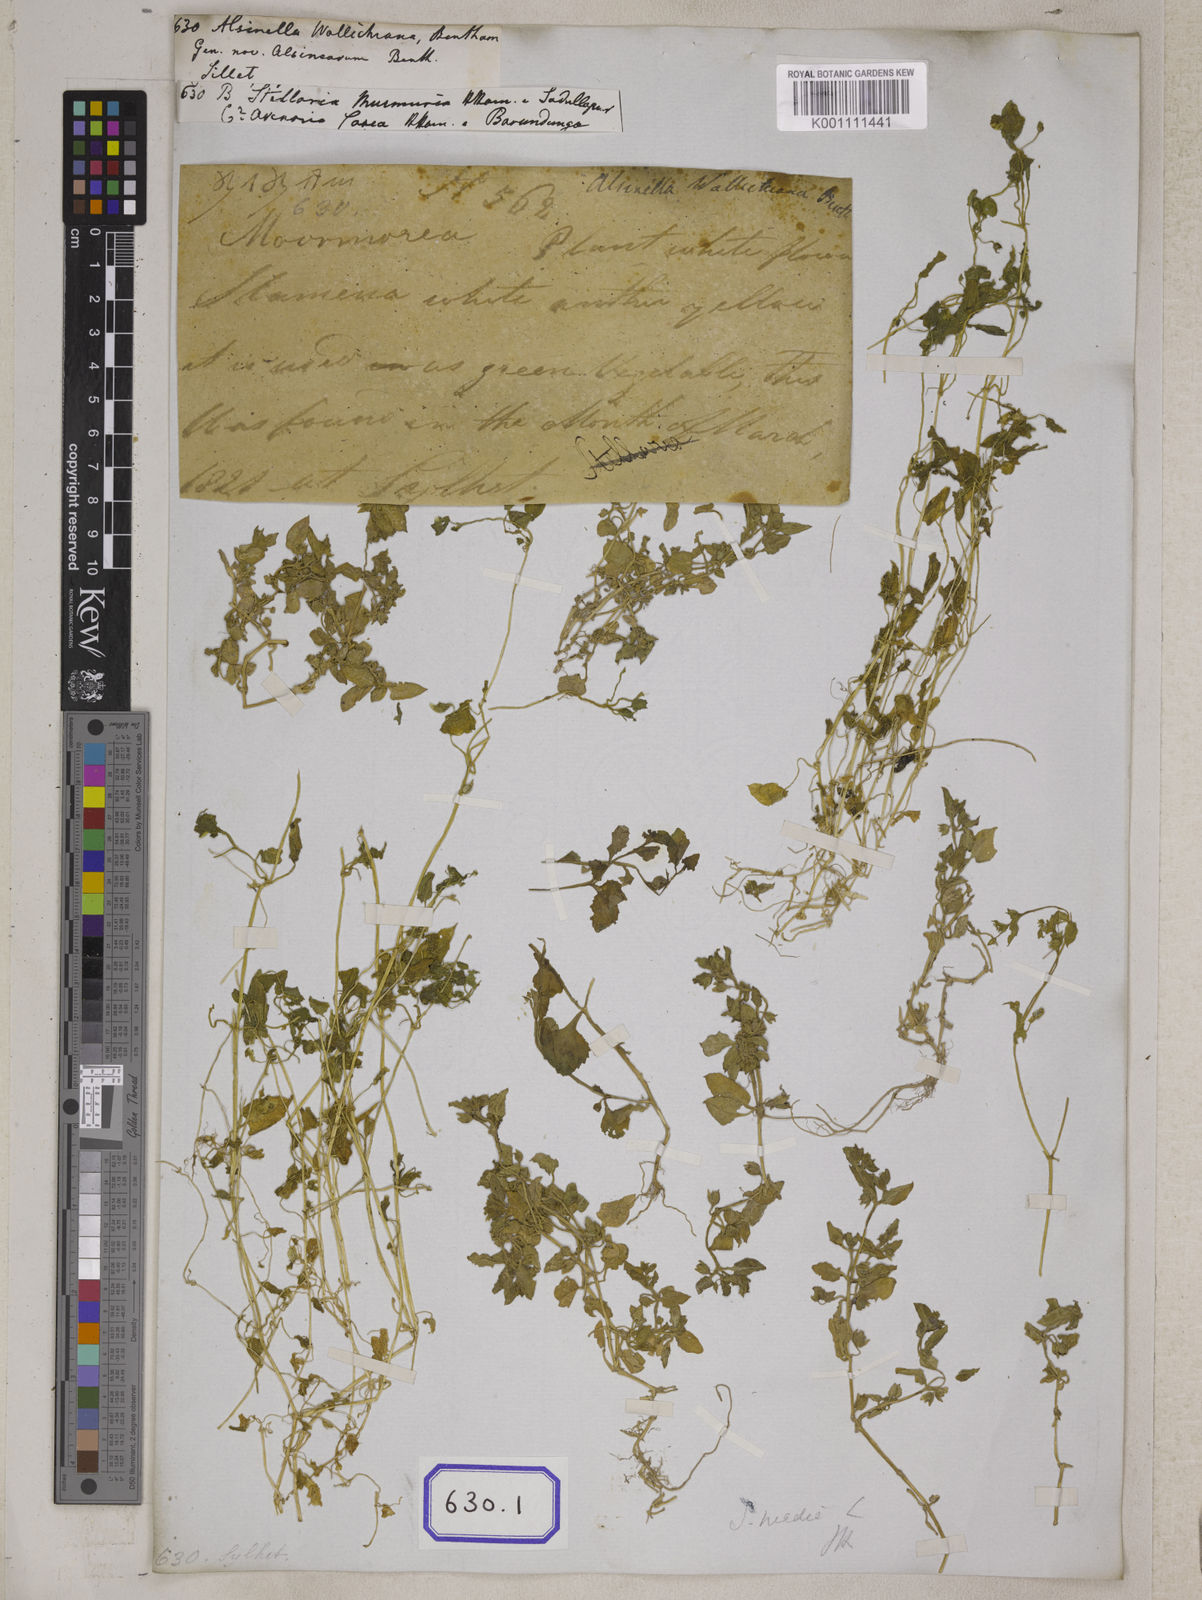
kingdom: Plantae
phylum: Tracheophyta
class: Magnoliopsida
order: Caryophyllales
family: Caryophyllaceae
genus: Spergula
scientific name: Spergula
